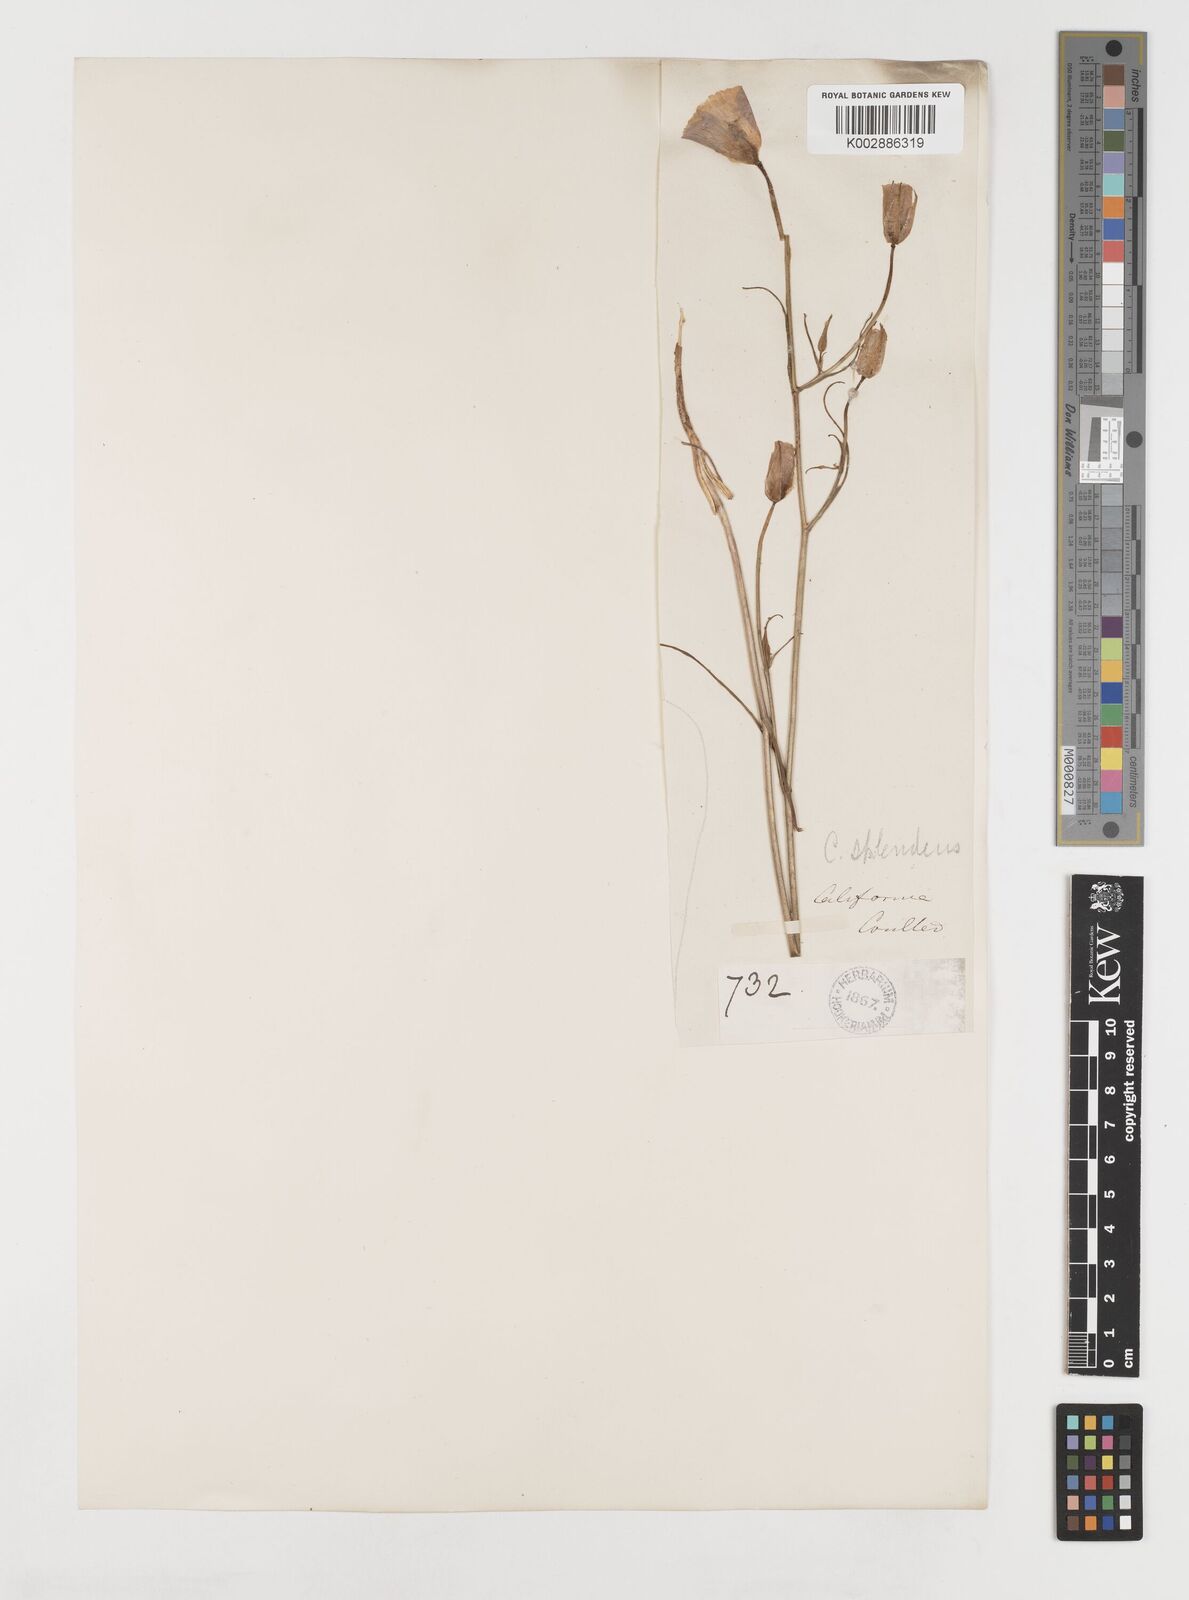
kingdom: Plantae
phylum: Tracheophyta
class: Liliopsida
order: Liliales
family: Liliaceae
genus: Calochortus
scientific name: Calochortus splendens
